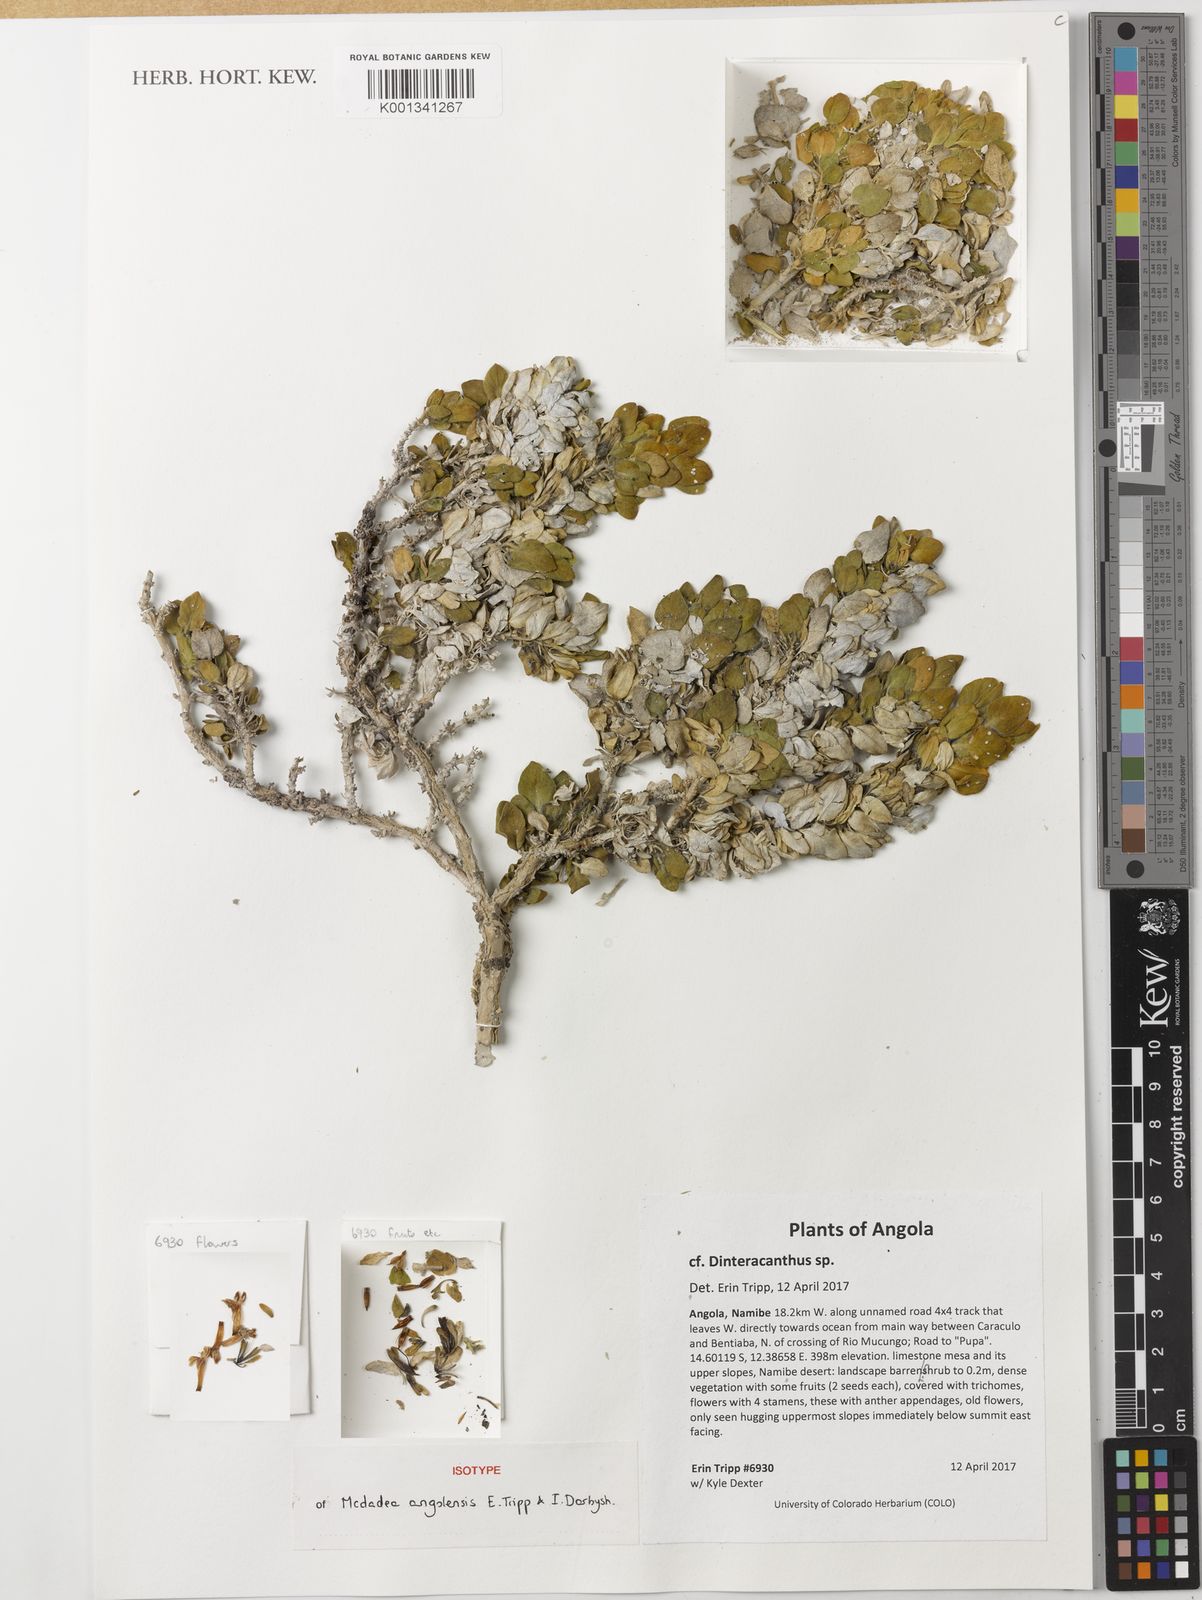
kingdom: Plantae
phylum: Tracheophyta
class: Magnoliopsida
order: Lamiales
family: Acanthaceae
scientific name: Acanthaceae
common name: Acanthaceae
